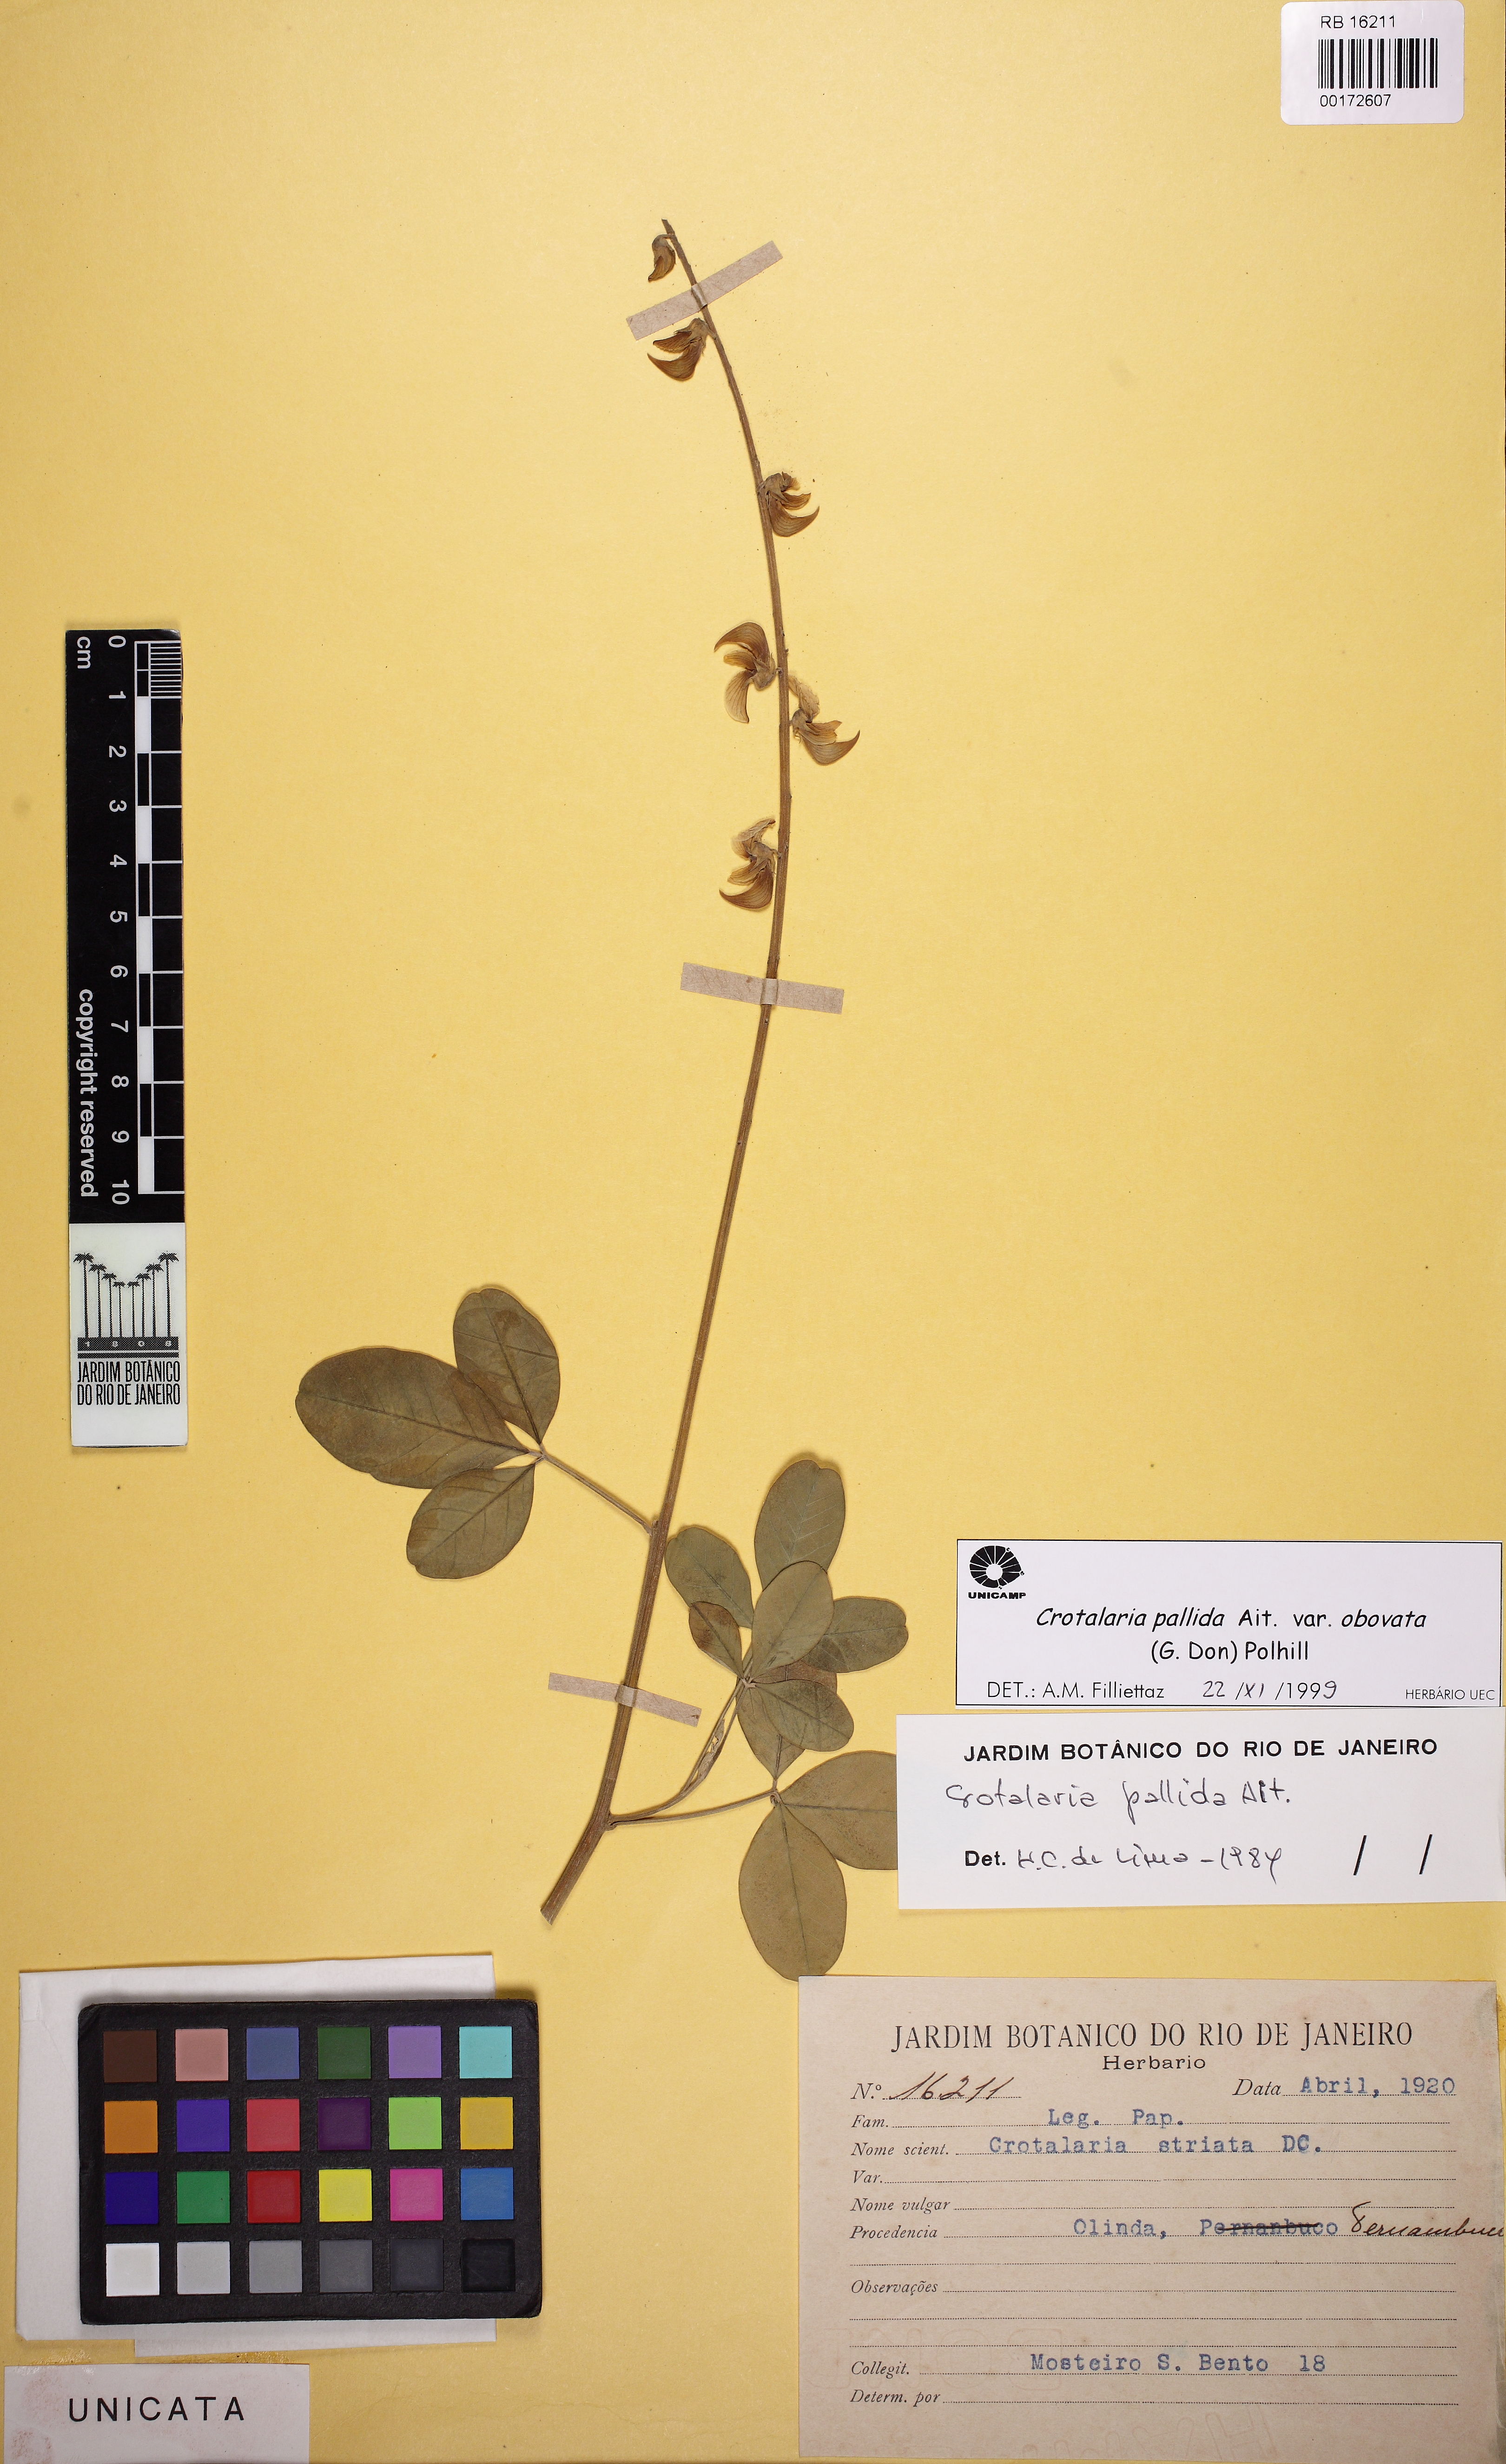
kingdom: Plantae
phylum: Tracheophyta
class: Magnoliopsida
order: Fabales
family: Fabaceae
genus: Crotalaria
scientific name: Crotalaria pallida
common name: Smooth rattlebox
